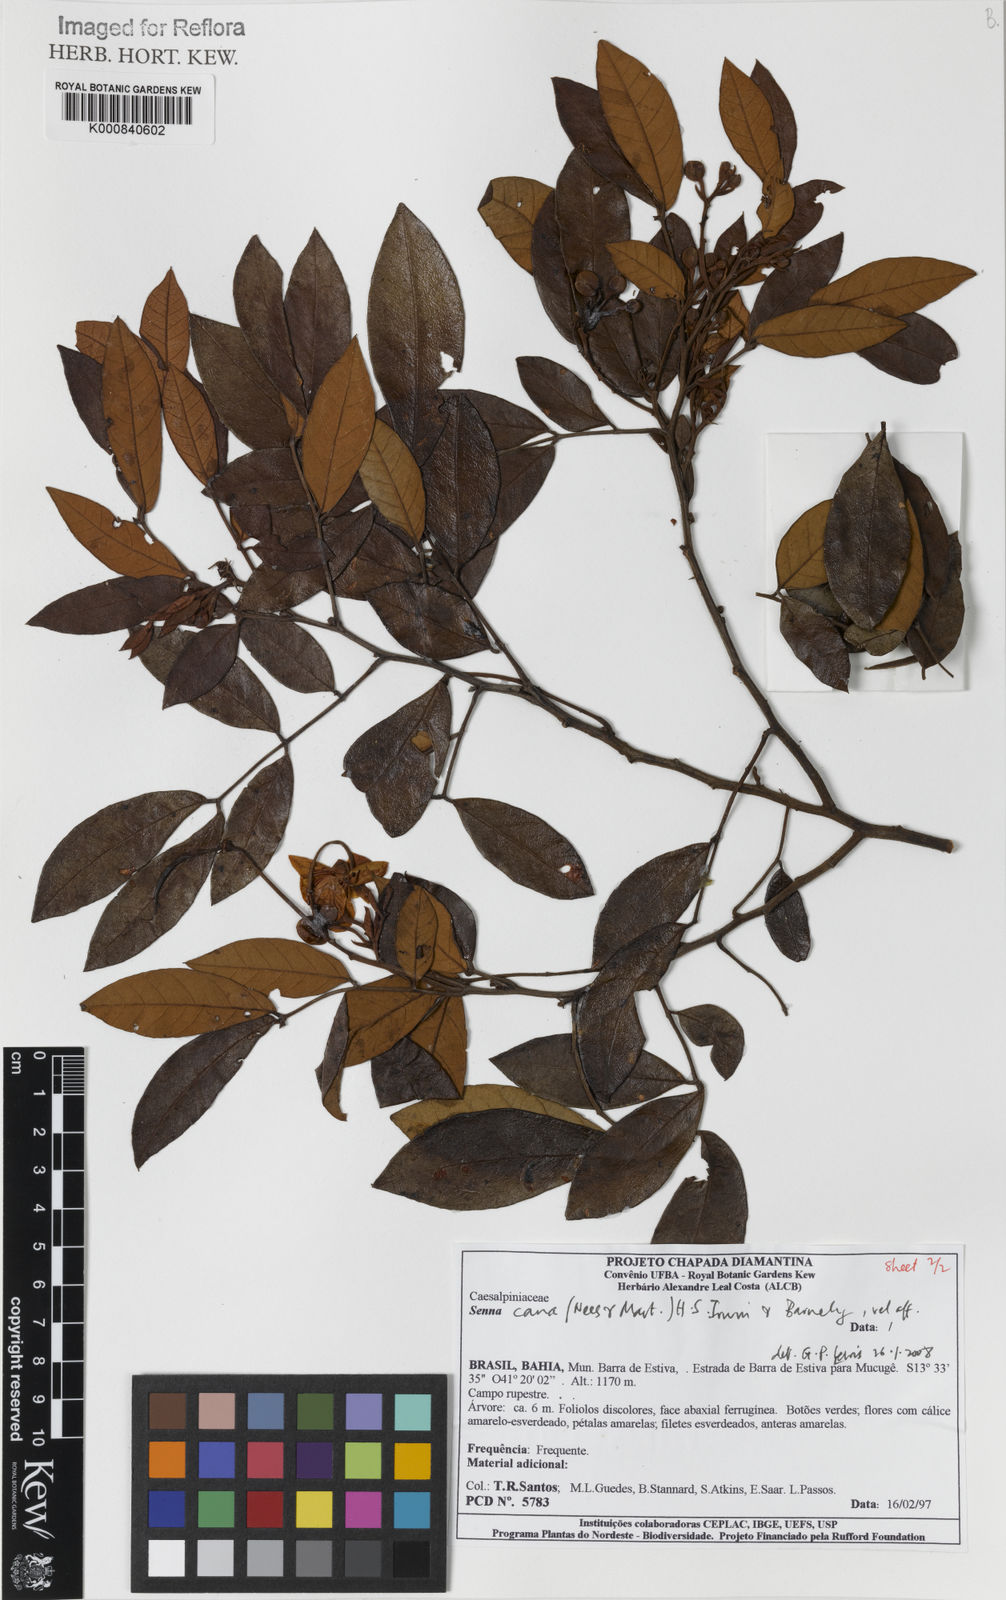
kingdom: Plantae
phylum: Tracheophyta
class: Magnoliopsida
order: Fabales
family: Fabaceae
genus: Senna
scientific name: Senna cana
